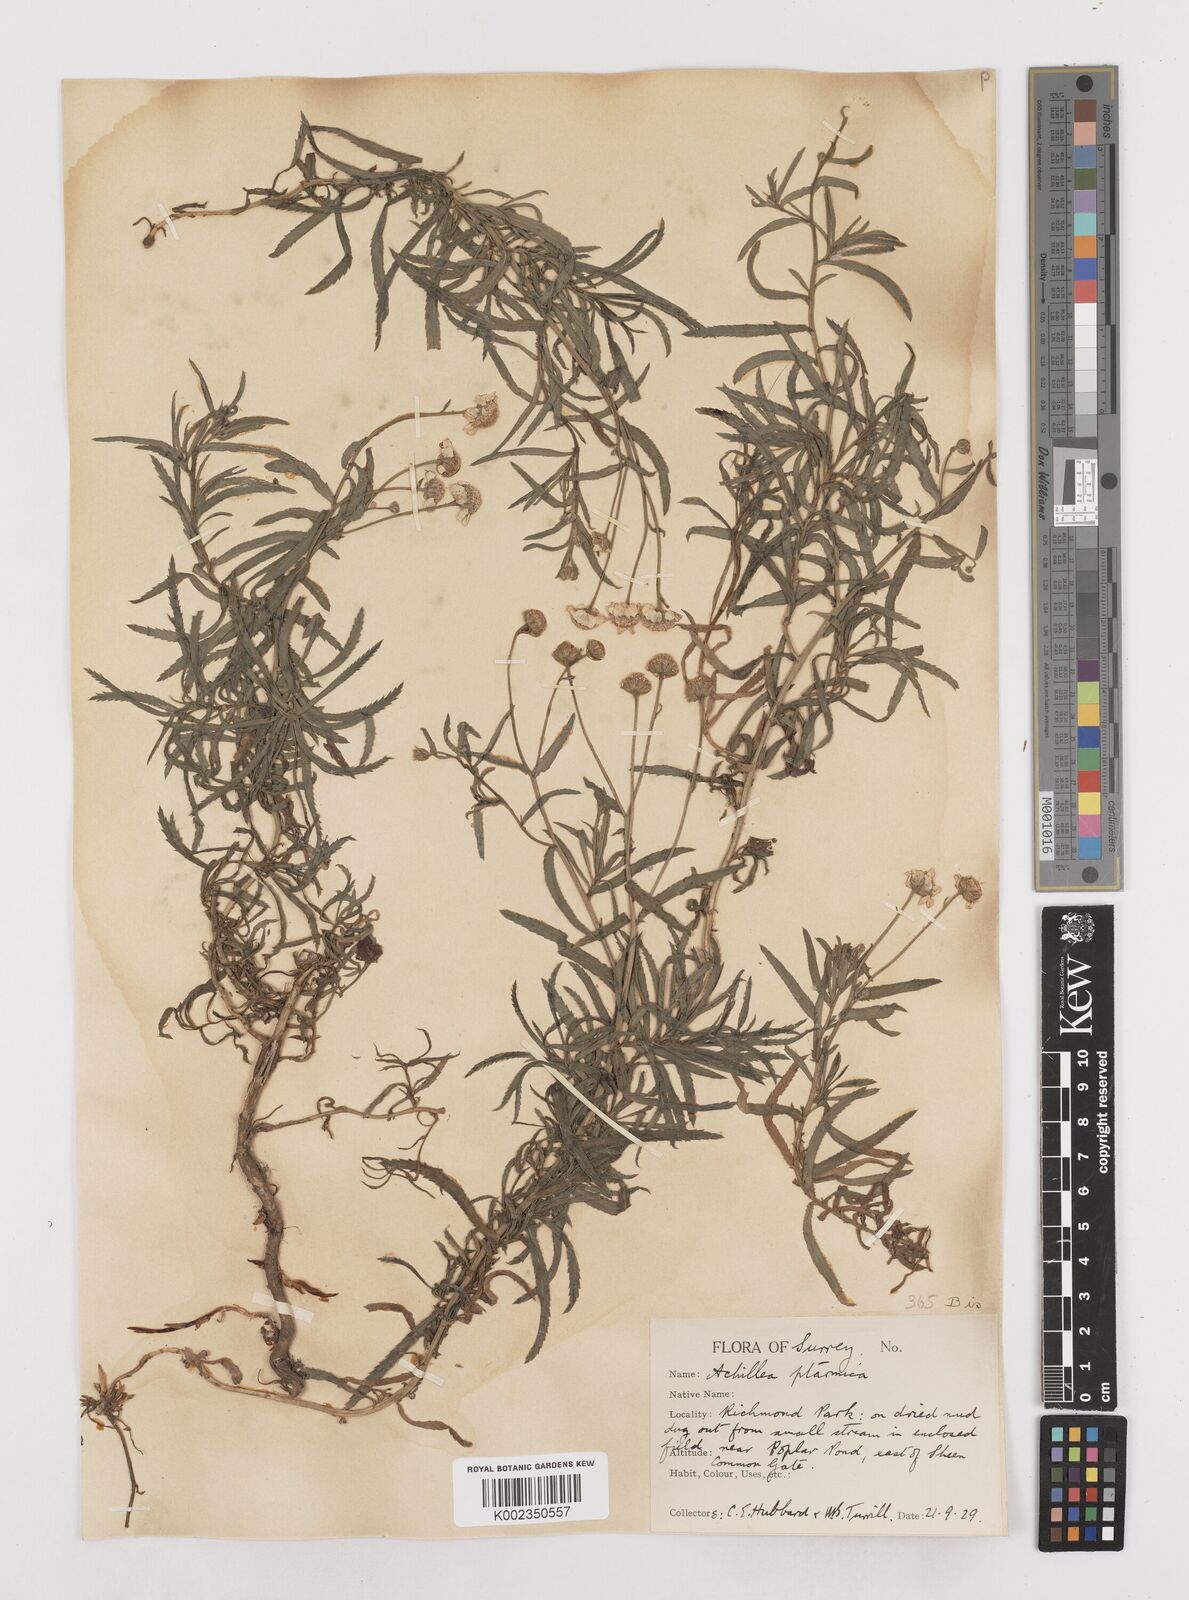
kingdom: Plantae
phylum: Tracheophyta
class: Magnoliopsida
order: Asterales
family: Asteraceae
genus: Achillea
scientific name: Achillea ptarmica
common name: Sneezeweed
